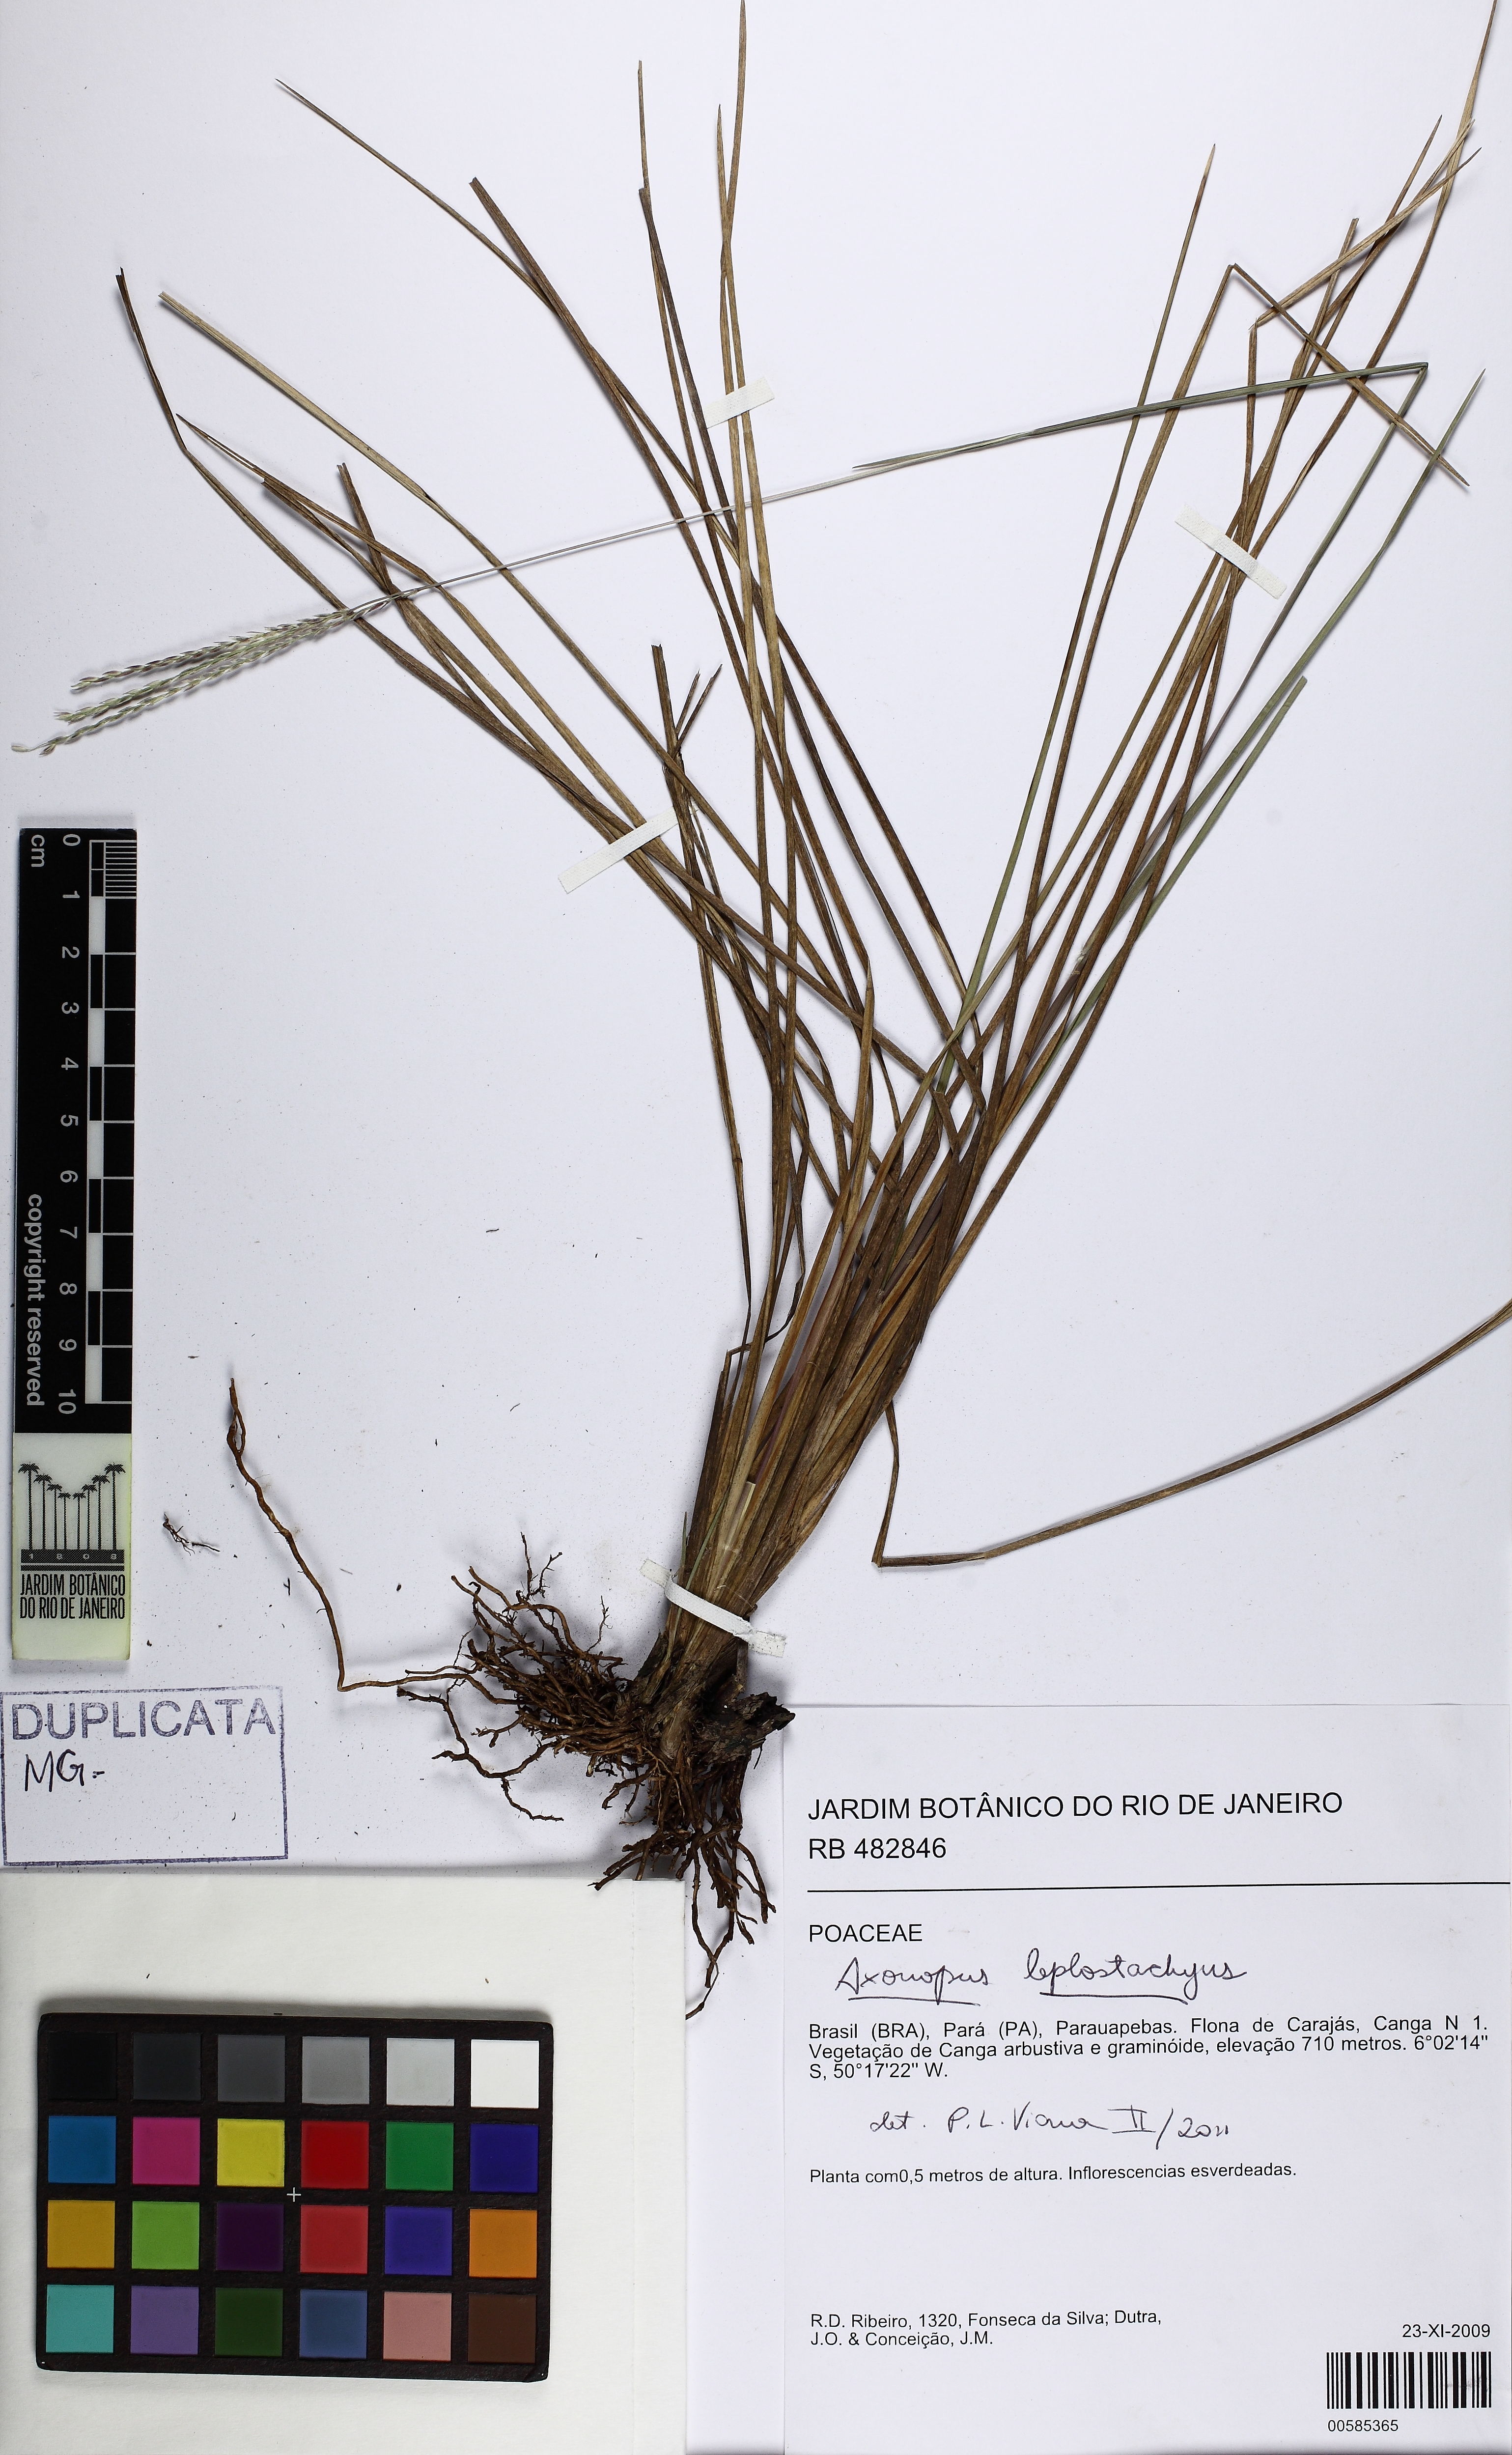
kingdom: Plantae
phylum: Tracheophyta
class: Liliopsida
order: Poales
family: Poaceae
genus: Axonopus
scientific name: Axonopus leptostachyus
